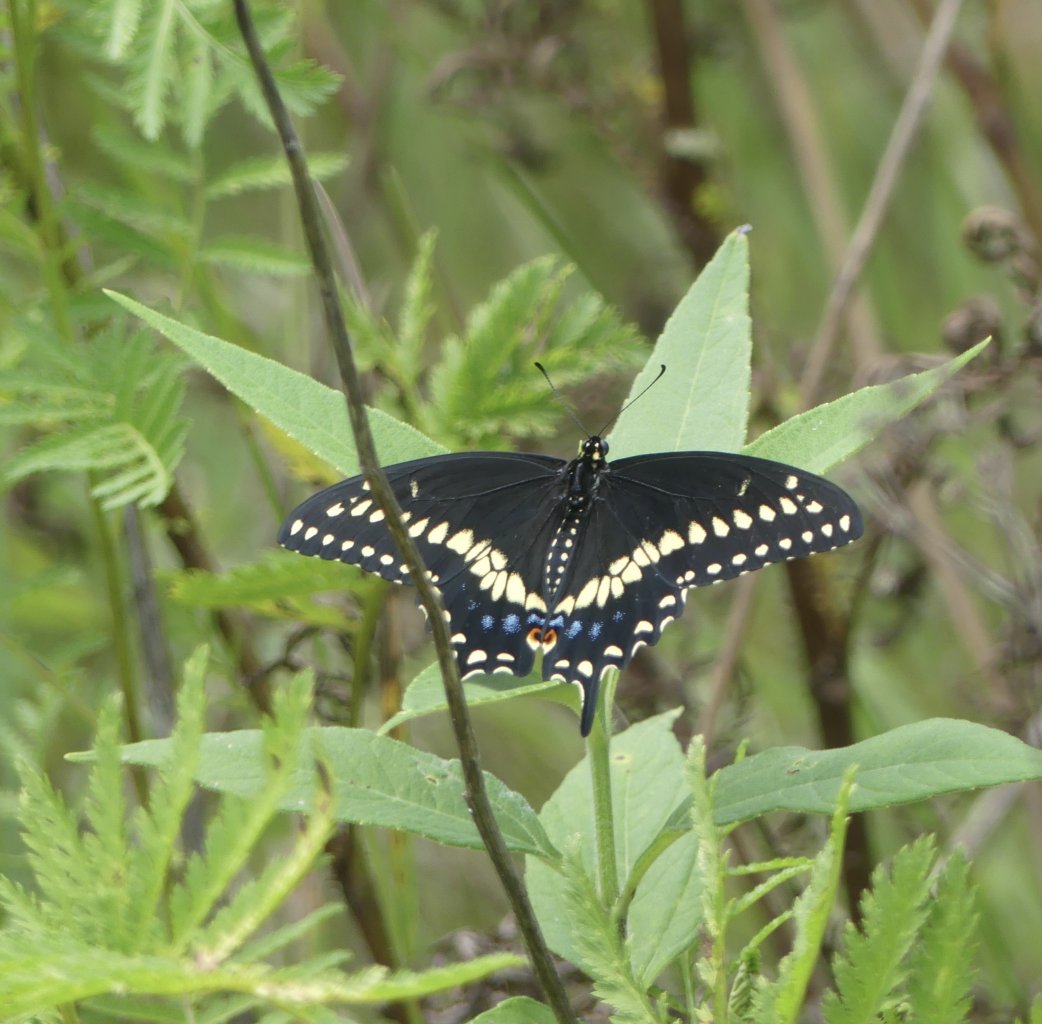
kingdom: Animalia
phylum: Arthropoda
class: Insecta
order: Lepidoptera
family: Papilionidae
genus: Papilio
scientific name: Papilio polyxenes
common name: Black Swallowtail
